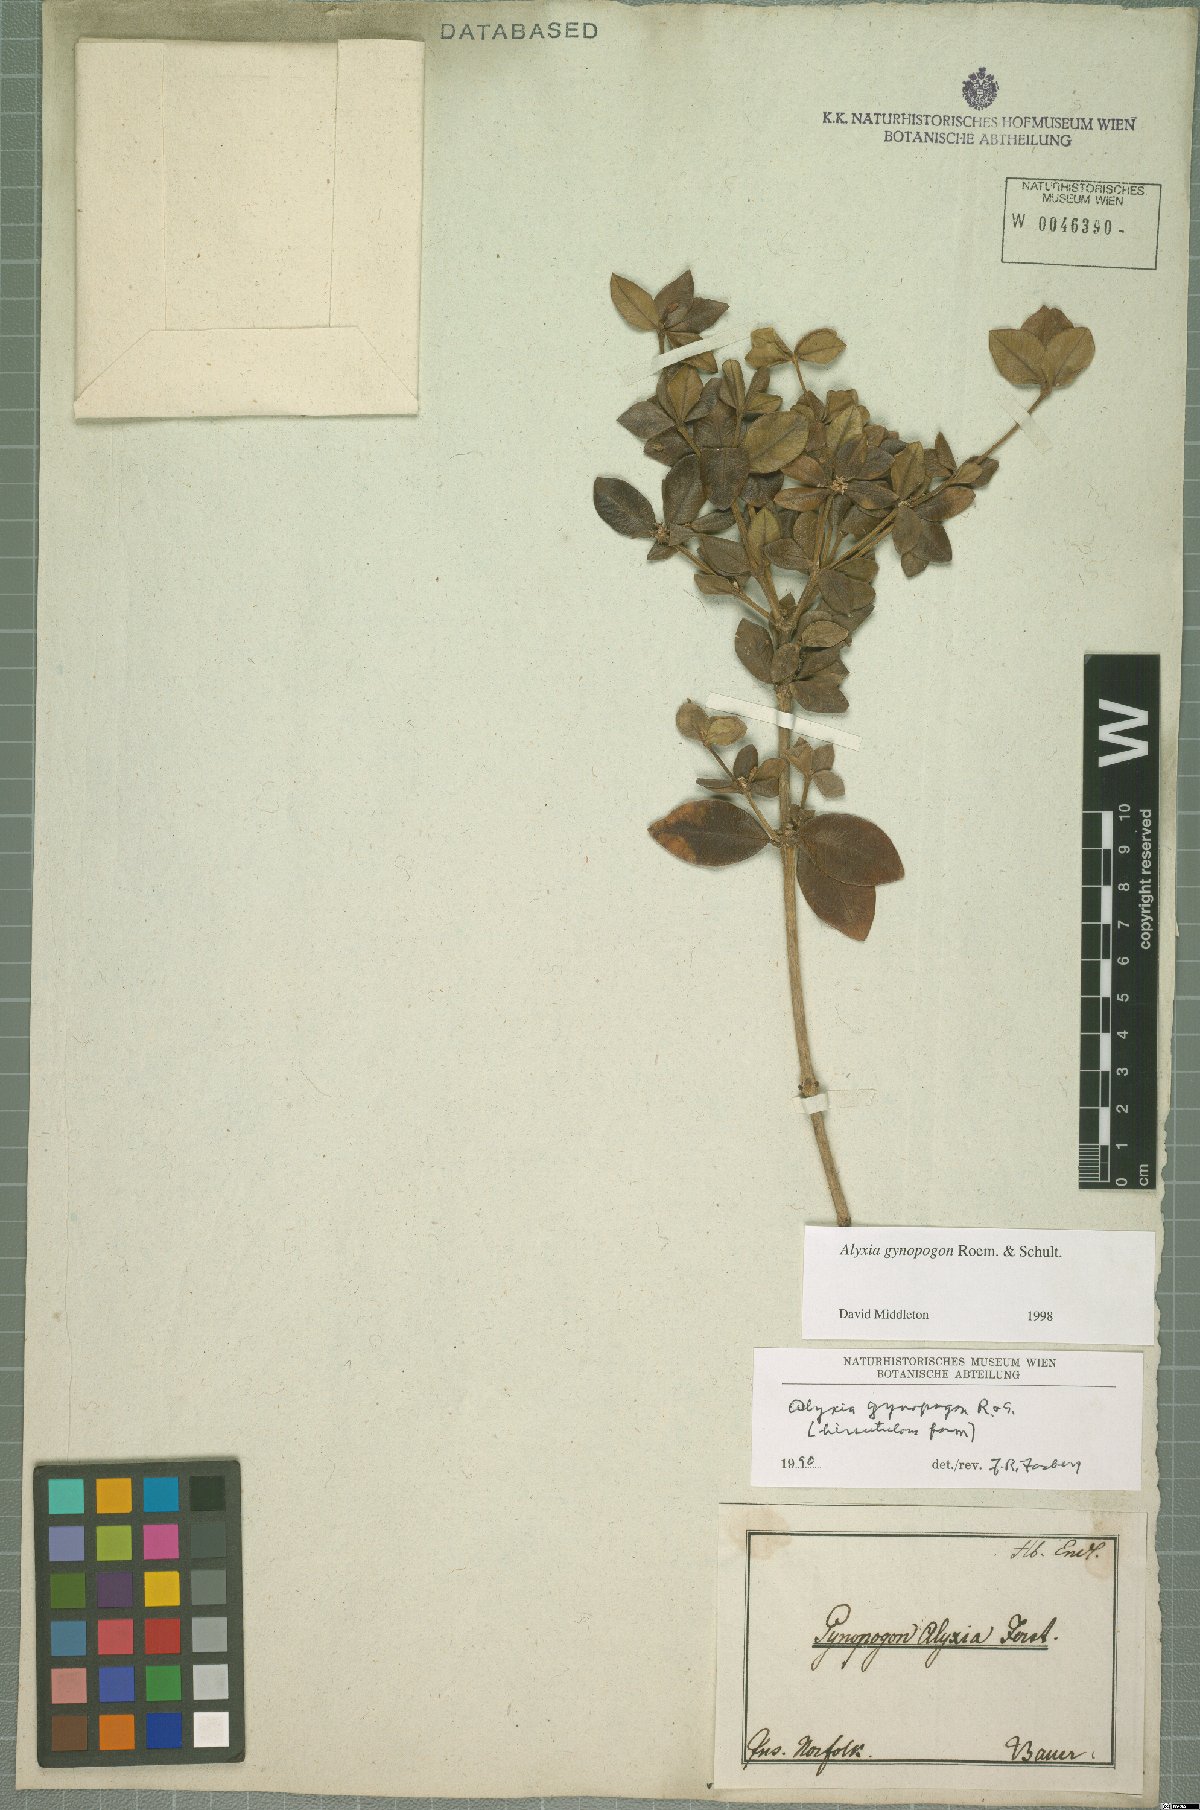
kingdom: Plantae
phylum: Tracheophyta
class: Magnoliopsida
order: Gentianales
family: Apocynaceae
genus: Alyxia
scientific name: Alyxia gynopogon
